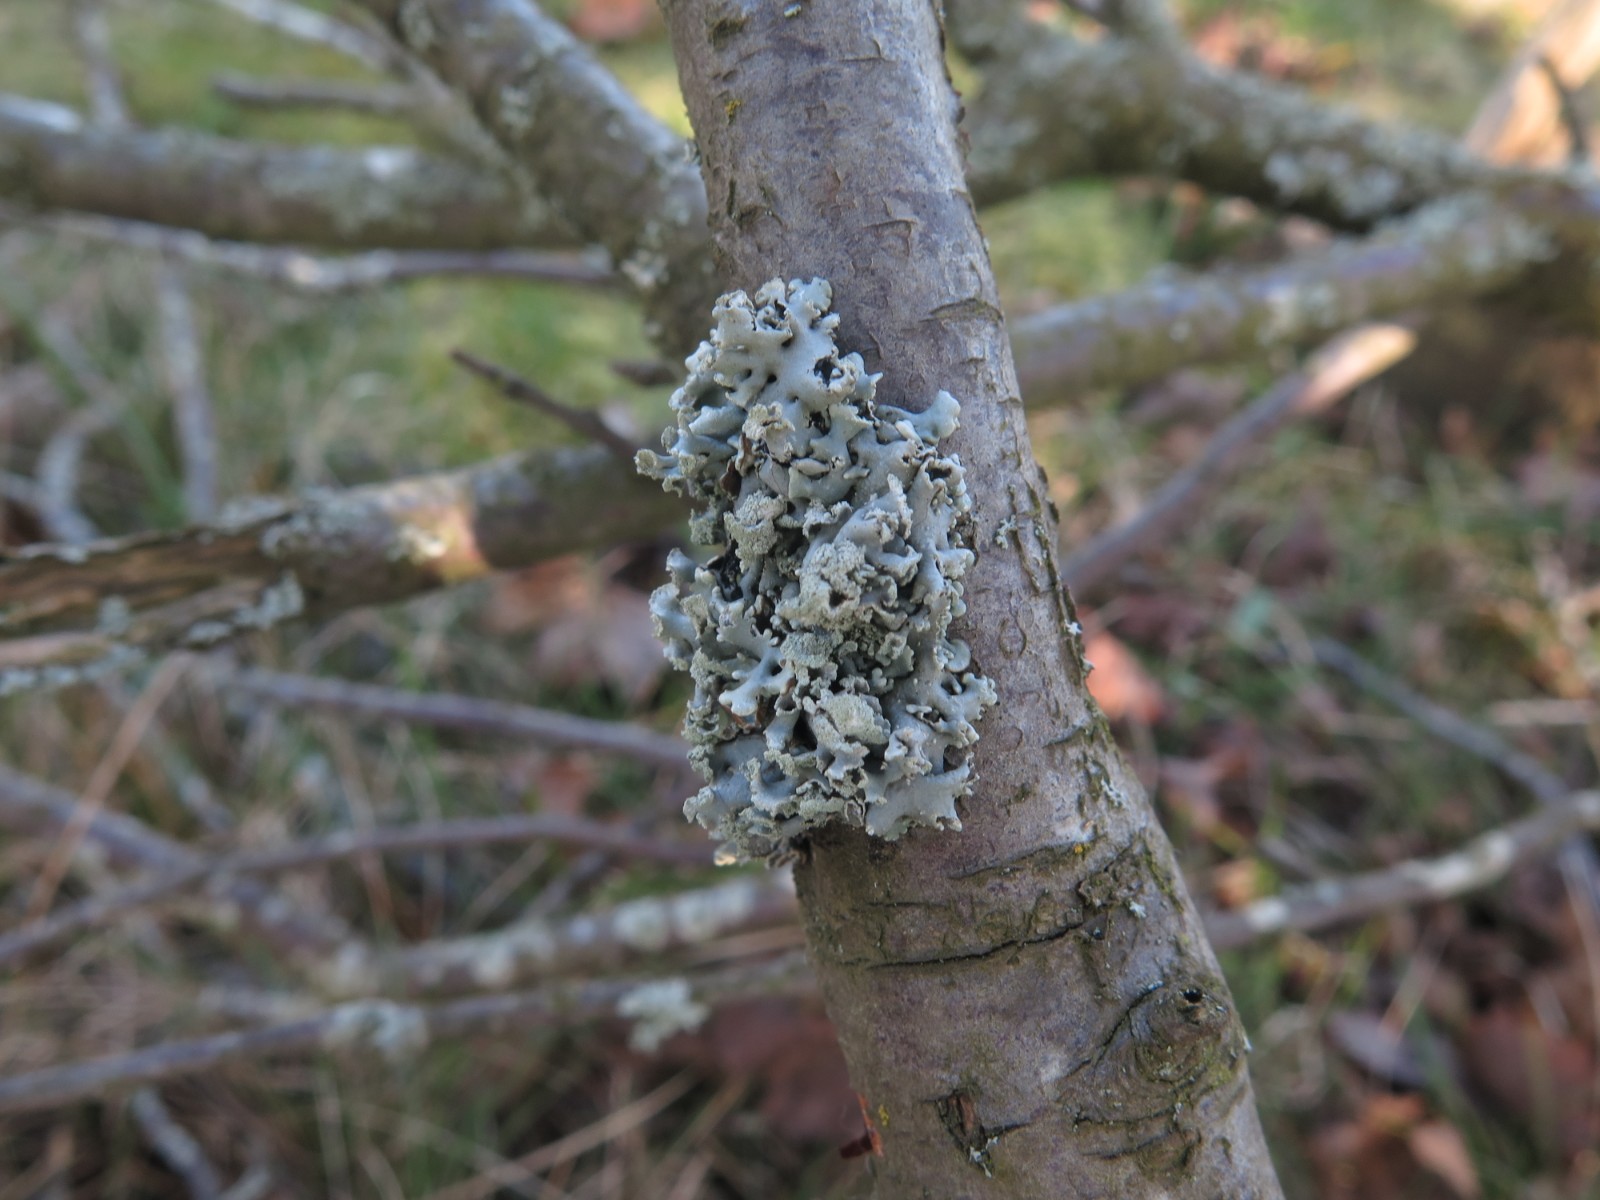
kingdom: Fungi
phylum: Ascomycota
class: Lecanoromycetes
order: Lecanorales
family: Parmeliaceae
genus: Hypogymnia
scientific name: Hypogymnia physodes
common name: almindelig kvistlav
